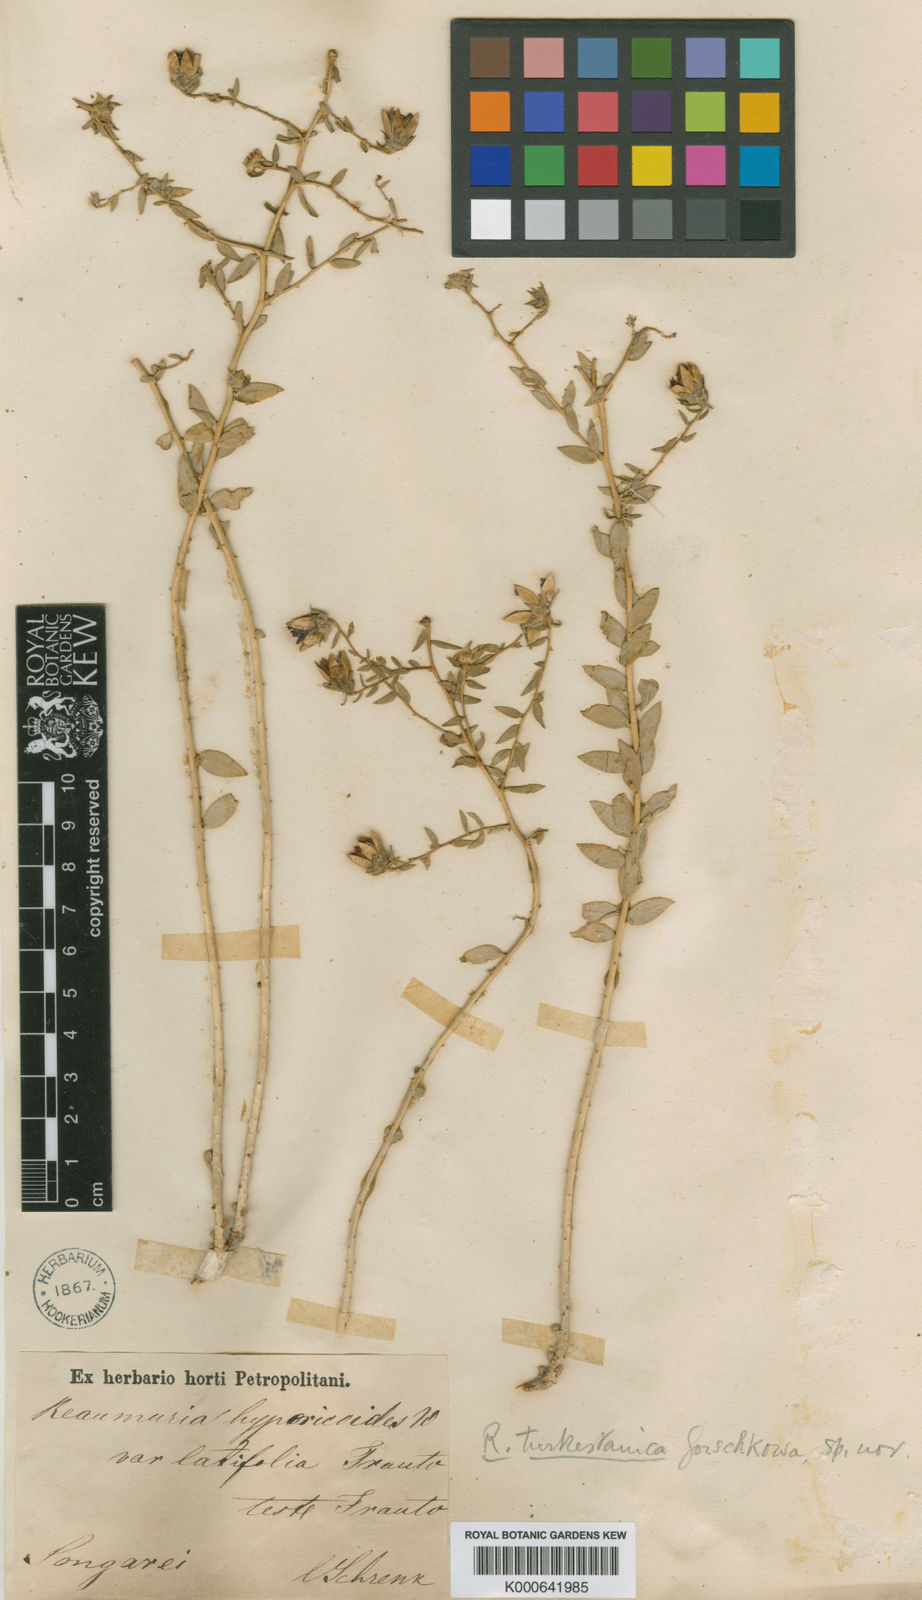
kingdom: Plantae
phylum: Tracheophyta
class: Magnoliopsida
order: Caryophyllales
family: Tamaricaceae
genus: Reaumuria
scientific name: Reaumuria turkestanica
